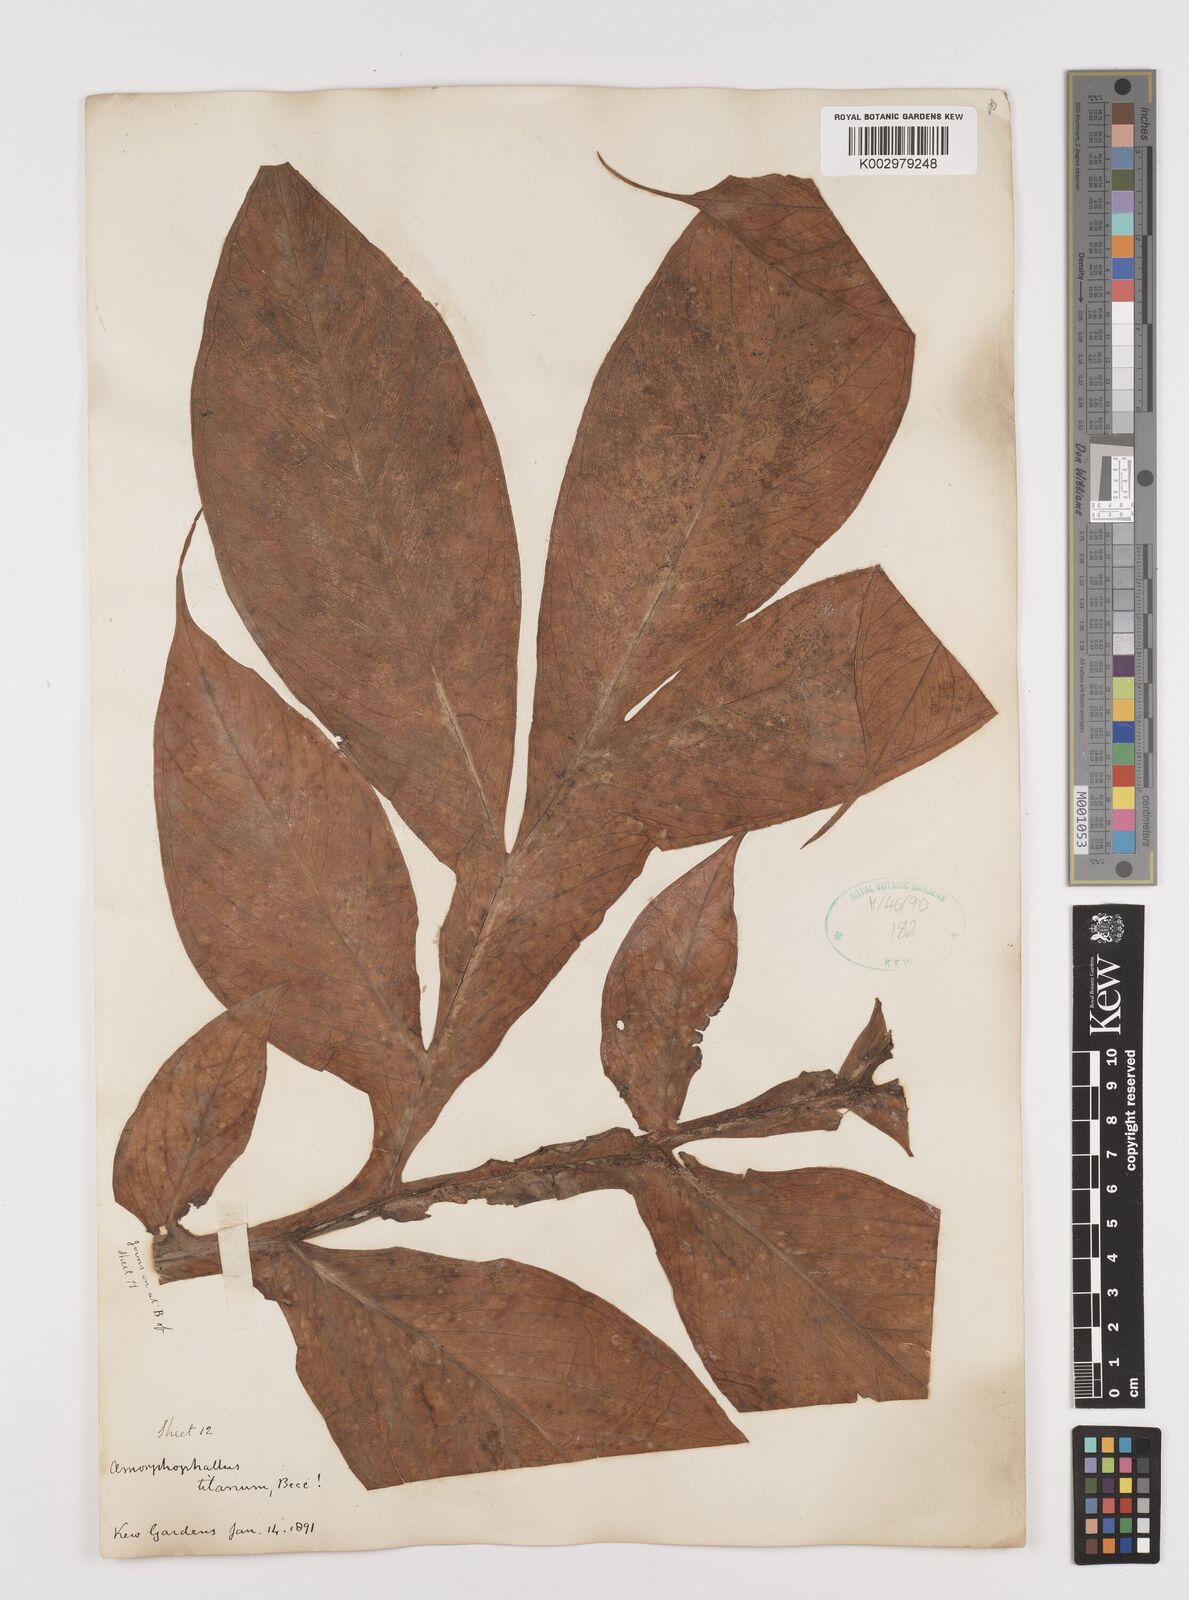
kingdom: Plantae
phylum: Tracheophyta
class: Liliopsida
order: Alismatales
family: Araceae
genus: Amorphophallus
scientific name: Amorphophallus titanum
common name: Titan arum
